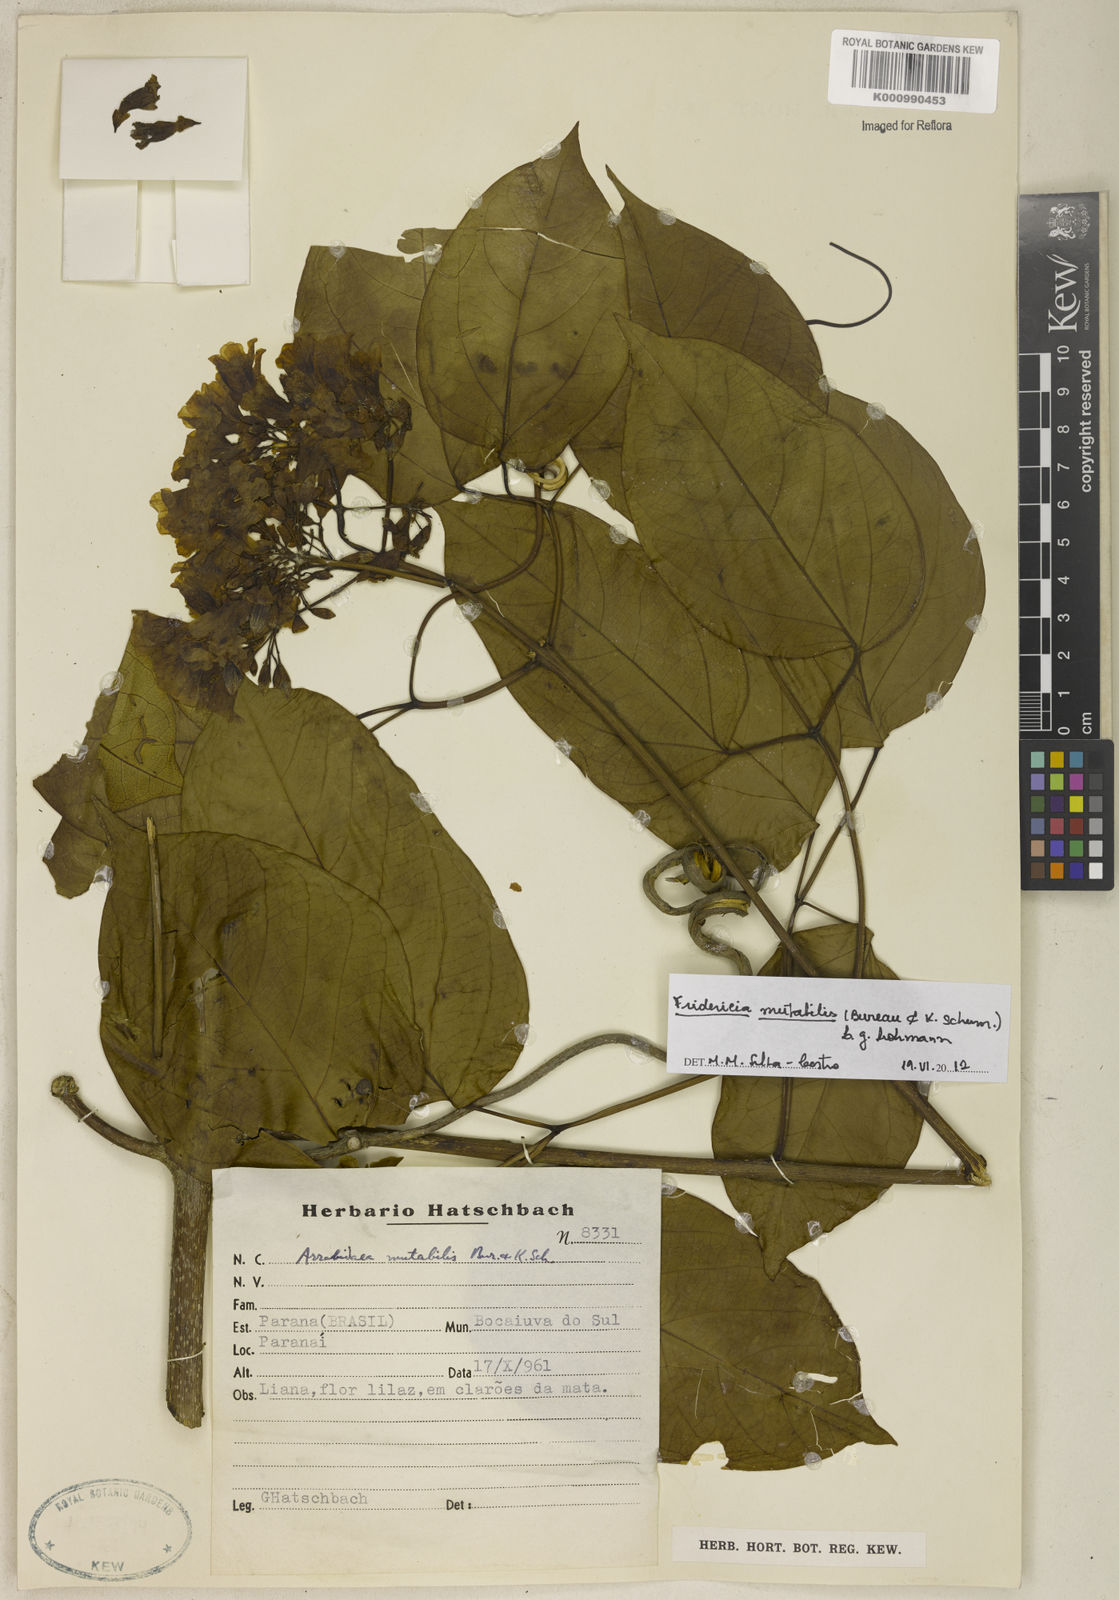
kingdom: Plantae
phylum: Tracheophyta
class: Magnoliopsida
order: Lamiales
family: Bignoniaceae
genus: Fridericia
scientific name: Fridericia
